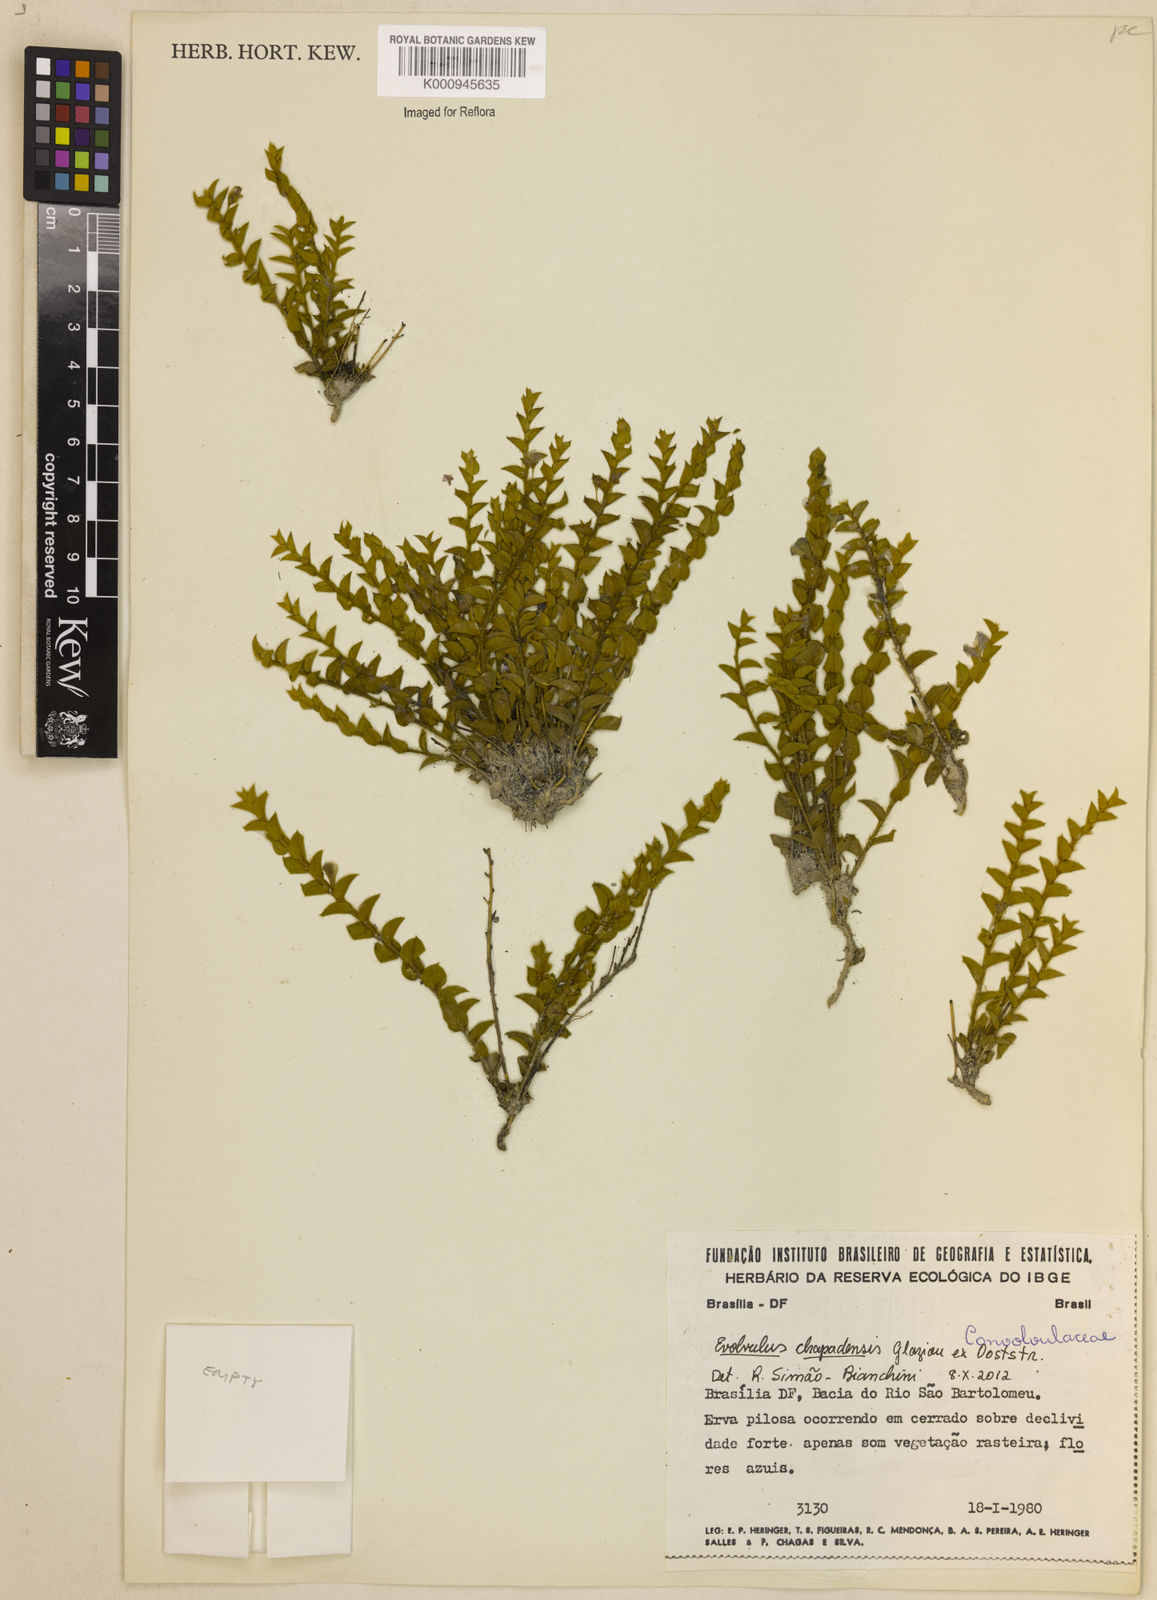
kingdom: Plantae
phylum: Tracheophyta
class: Magnoliopsida
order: Solanales
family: Convolvulaceae
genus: Evolvulus
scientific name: Evolvulus
